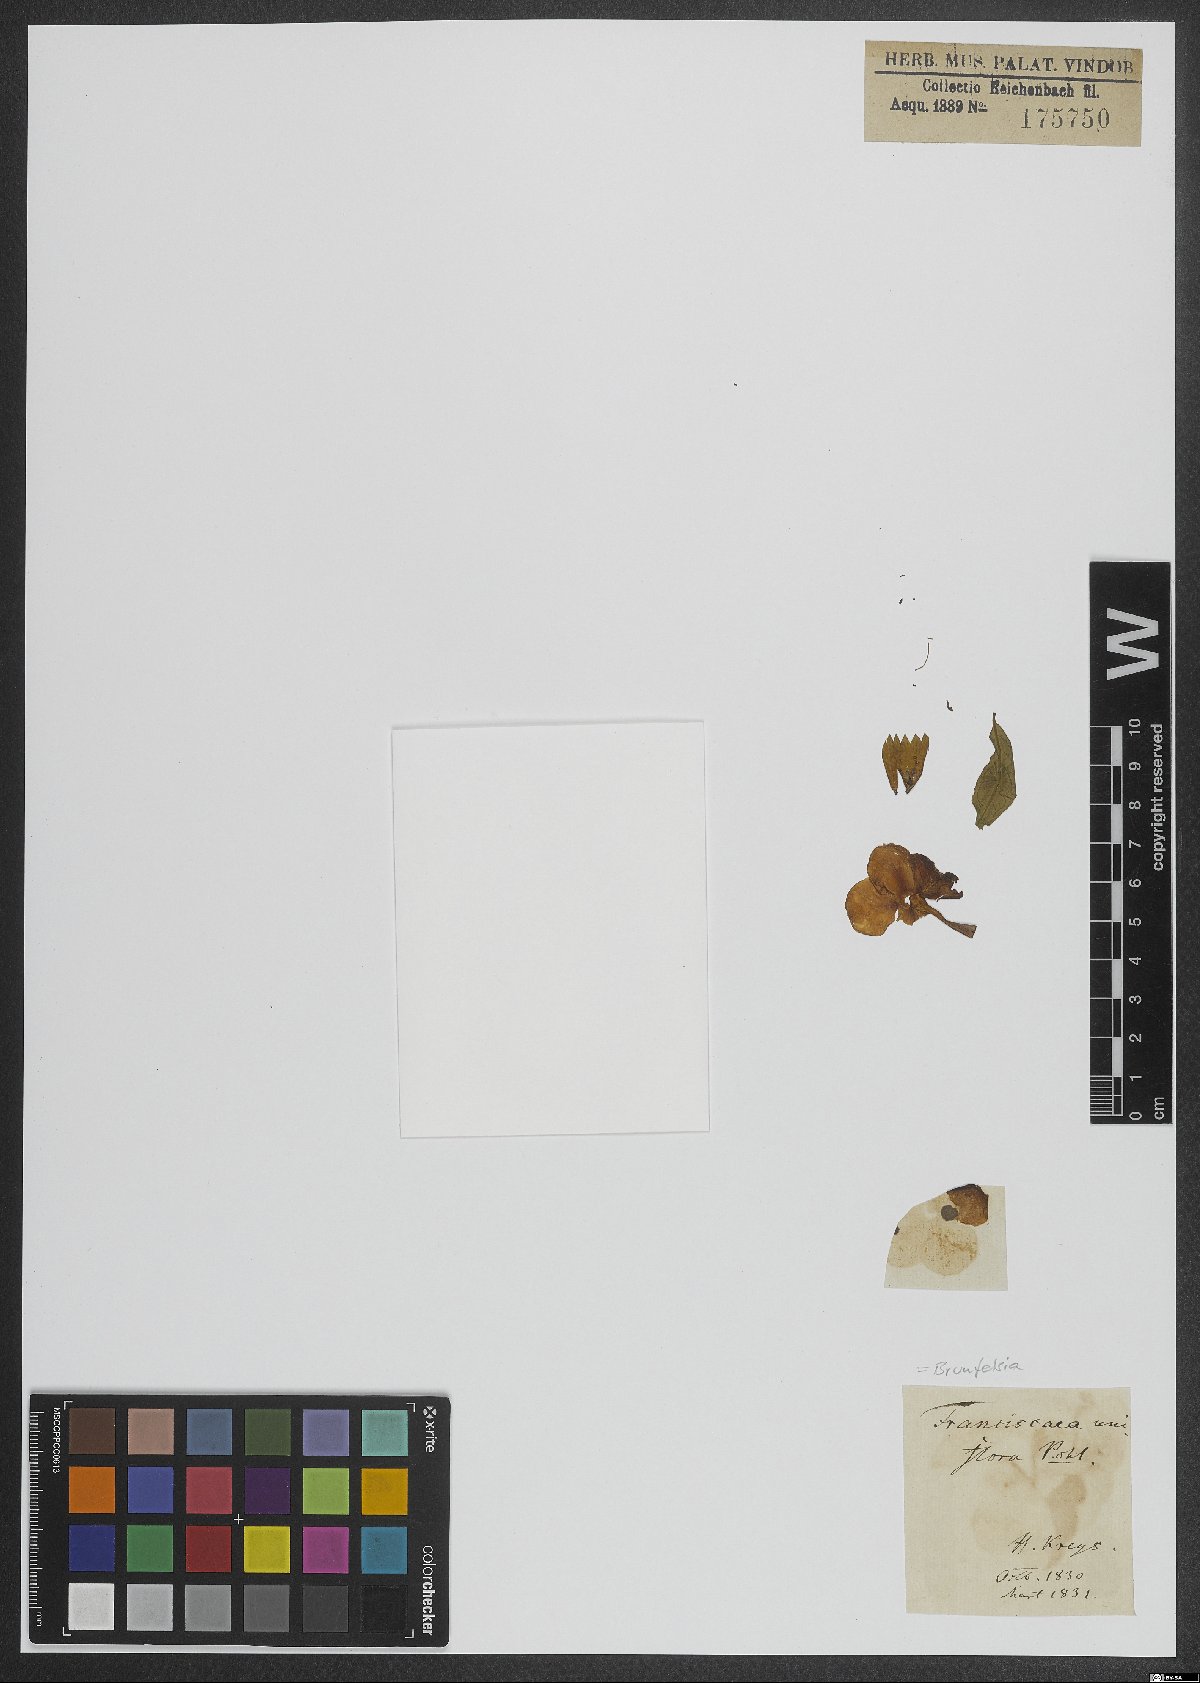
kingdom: Plantae
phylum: Tracheophyta
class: Magnoliopsida
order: Solanales
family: Solanaceae
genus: Brunfelsia
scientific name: Brunfelsia uniflora
